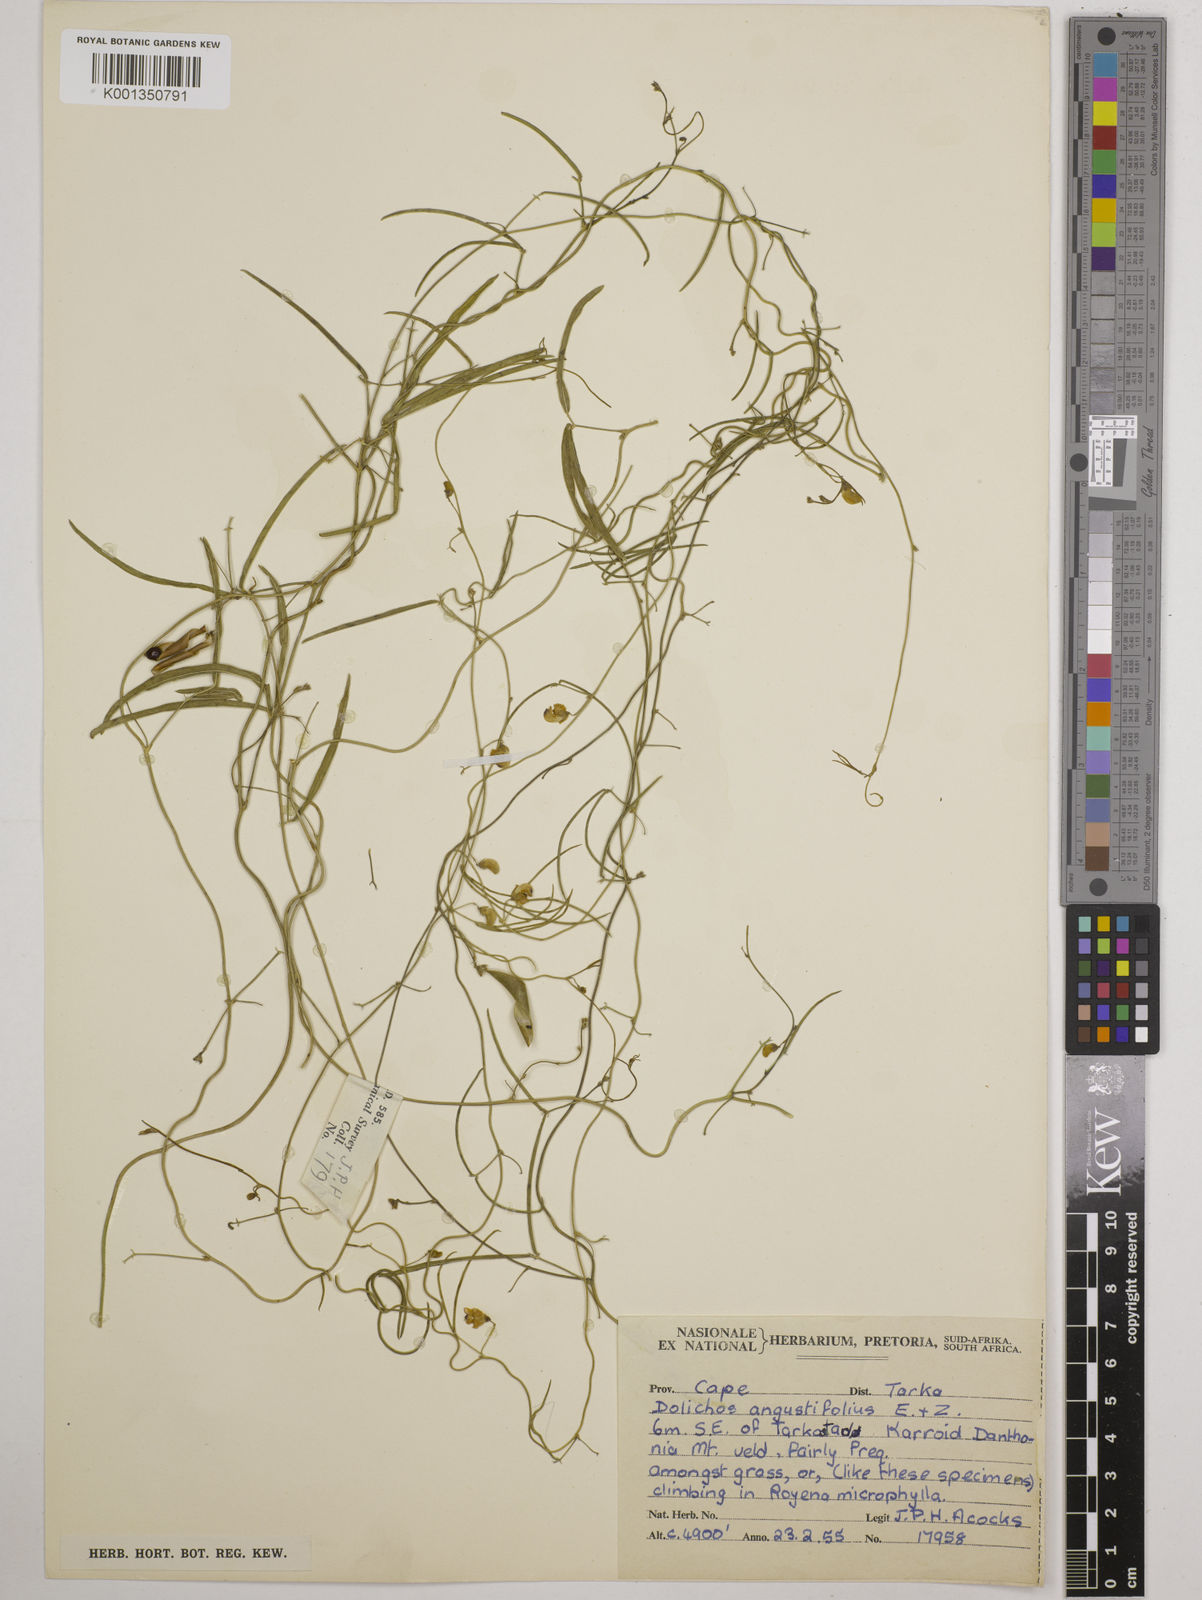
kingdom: Plantae
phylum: Tracheophyta
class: Magnoliopsida
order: Fabales
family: Fabaceae
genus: Dolichos
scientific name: Dolichos
